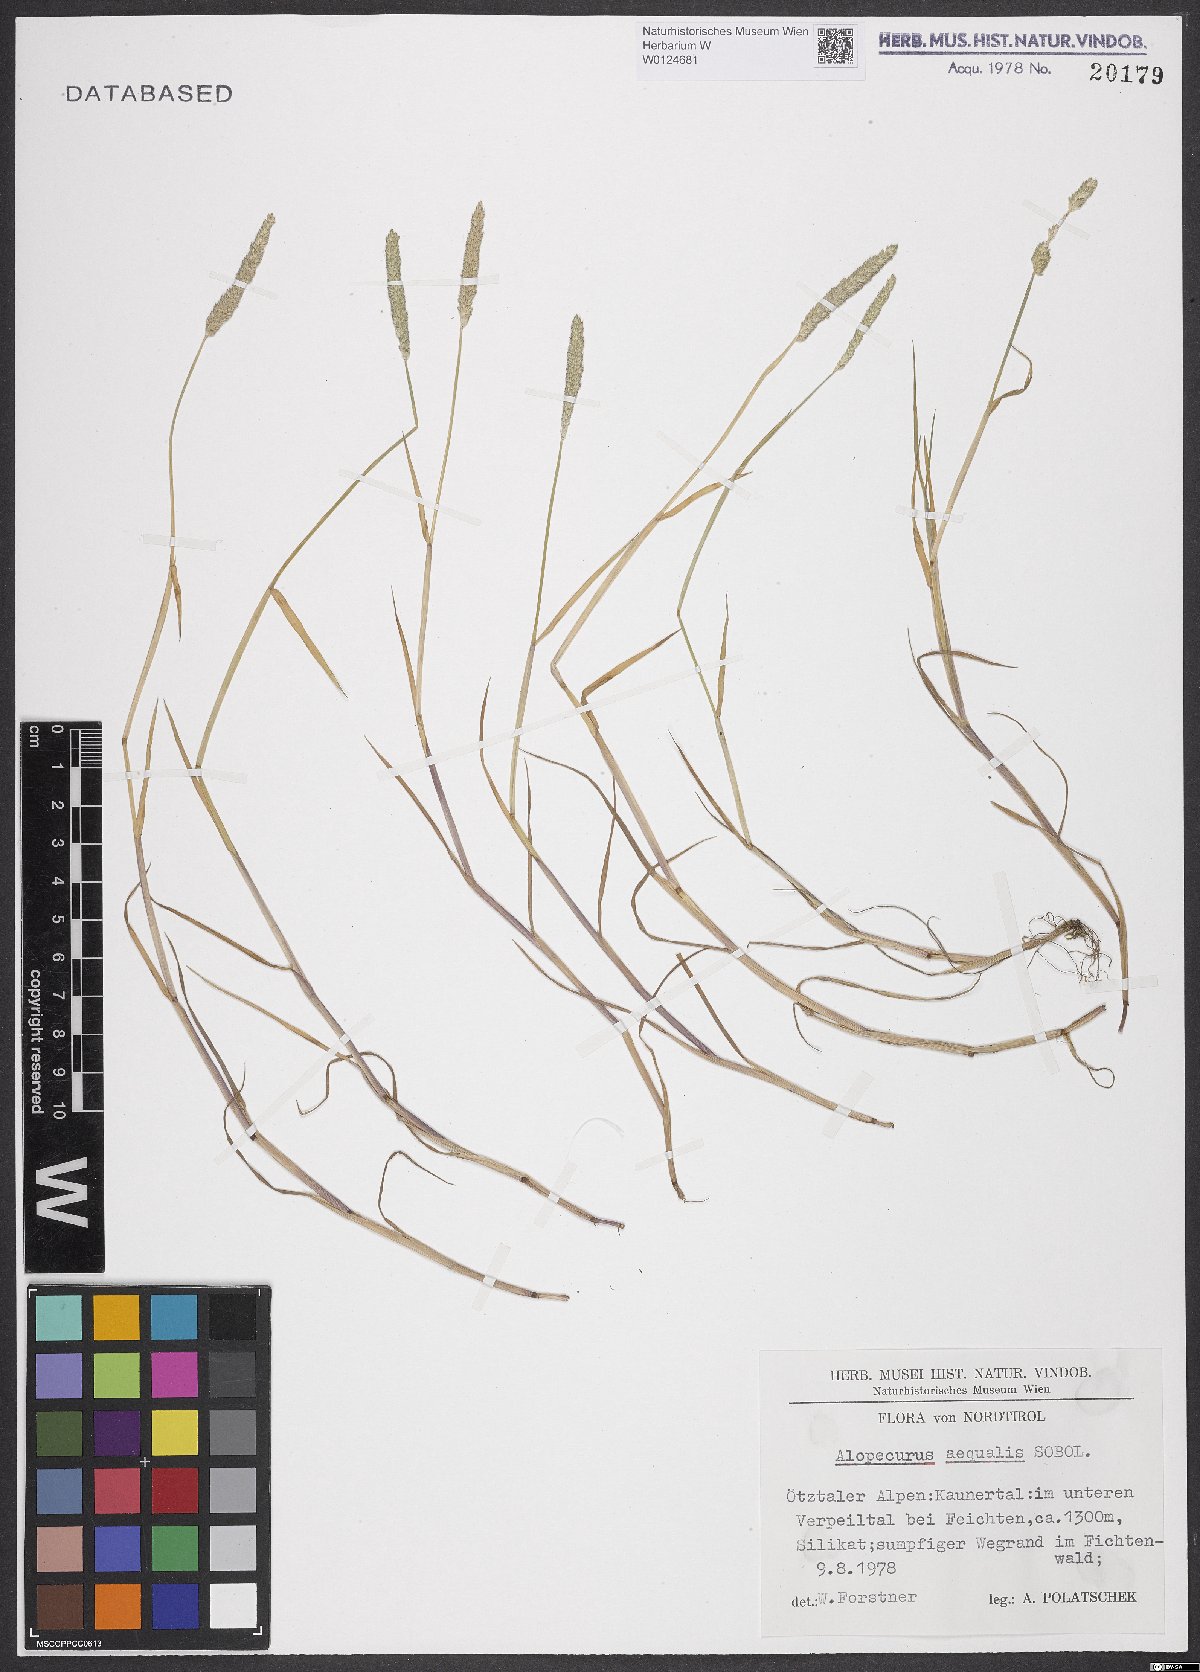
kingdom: Plantae
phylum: Tracheophyta
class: Liliopsida
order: Poales
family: Poaceae
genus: Alopecurus
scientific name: Alopecurus aequalis
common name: Orange foxtail
